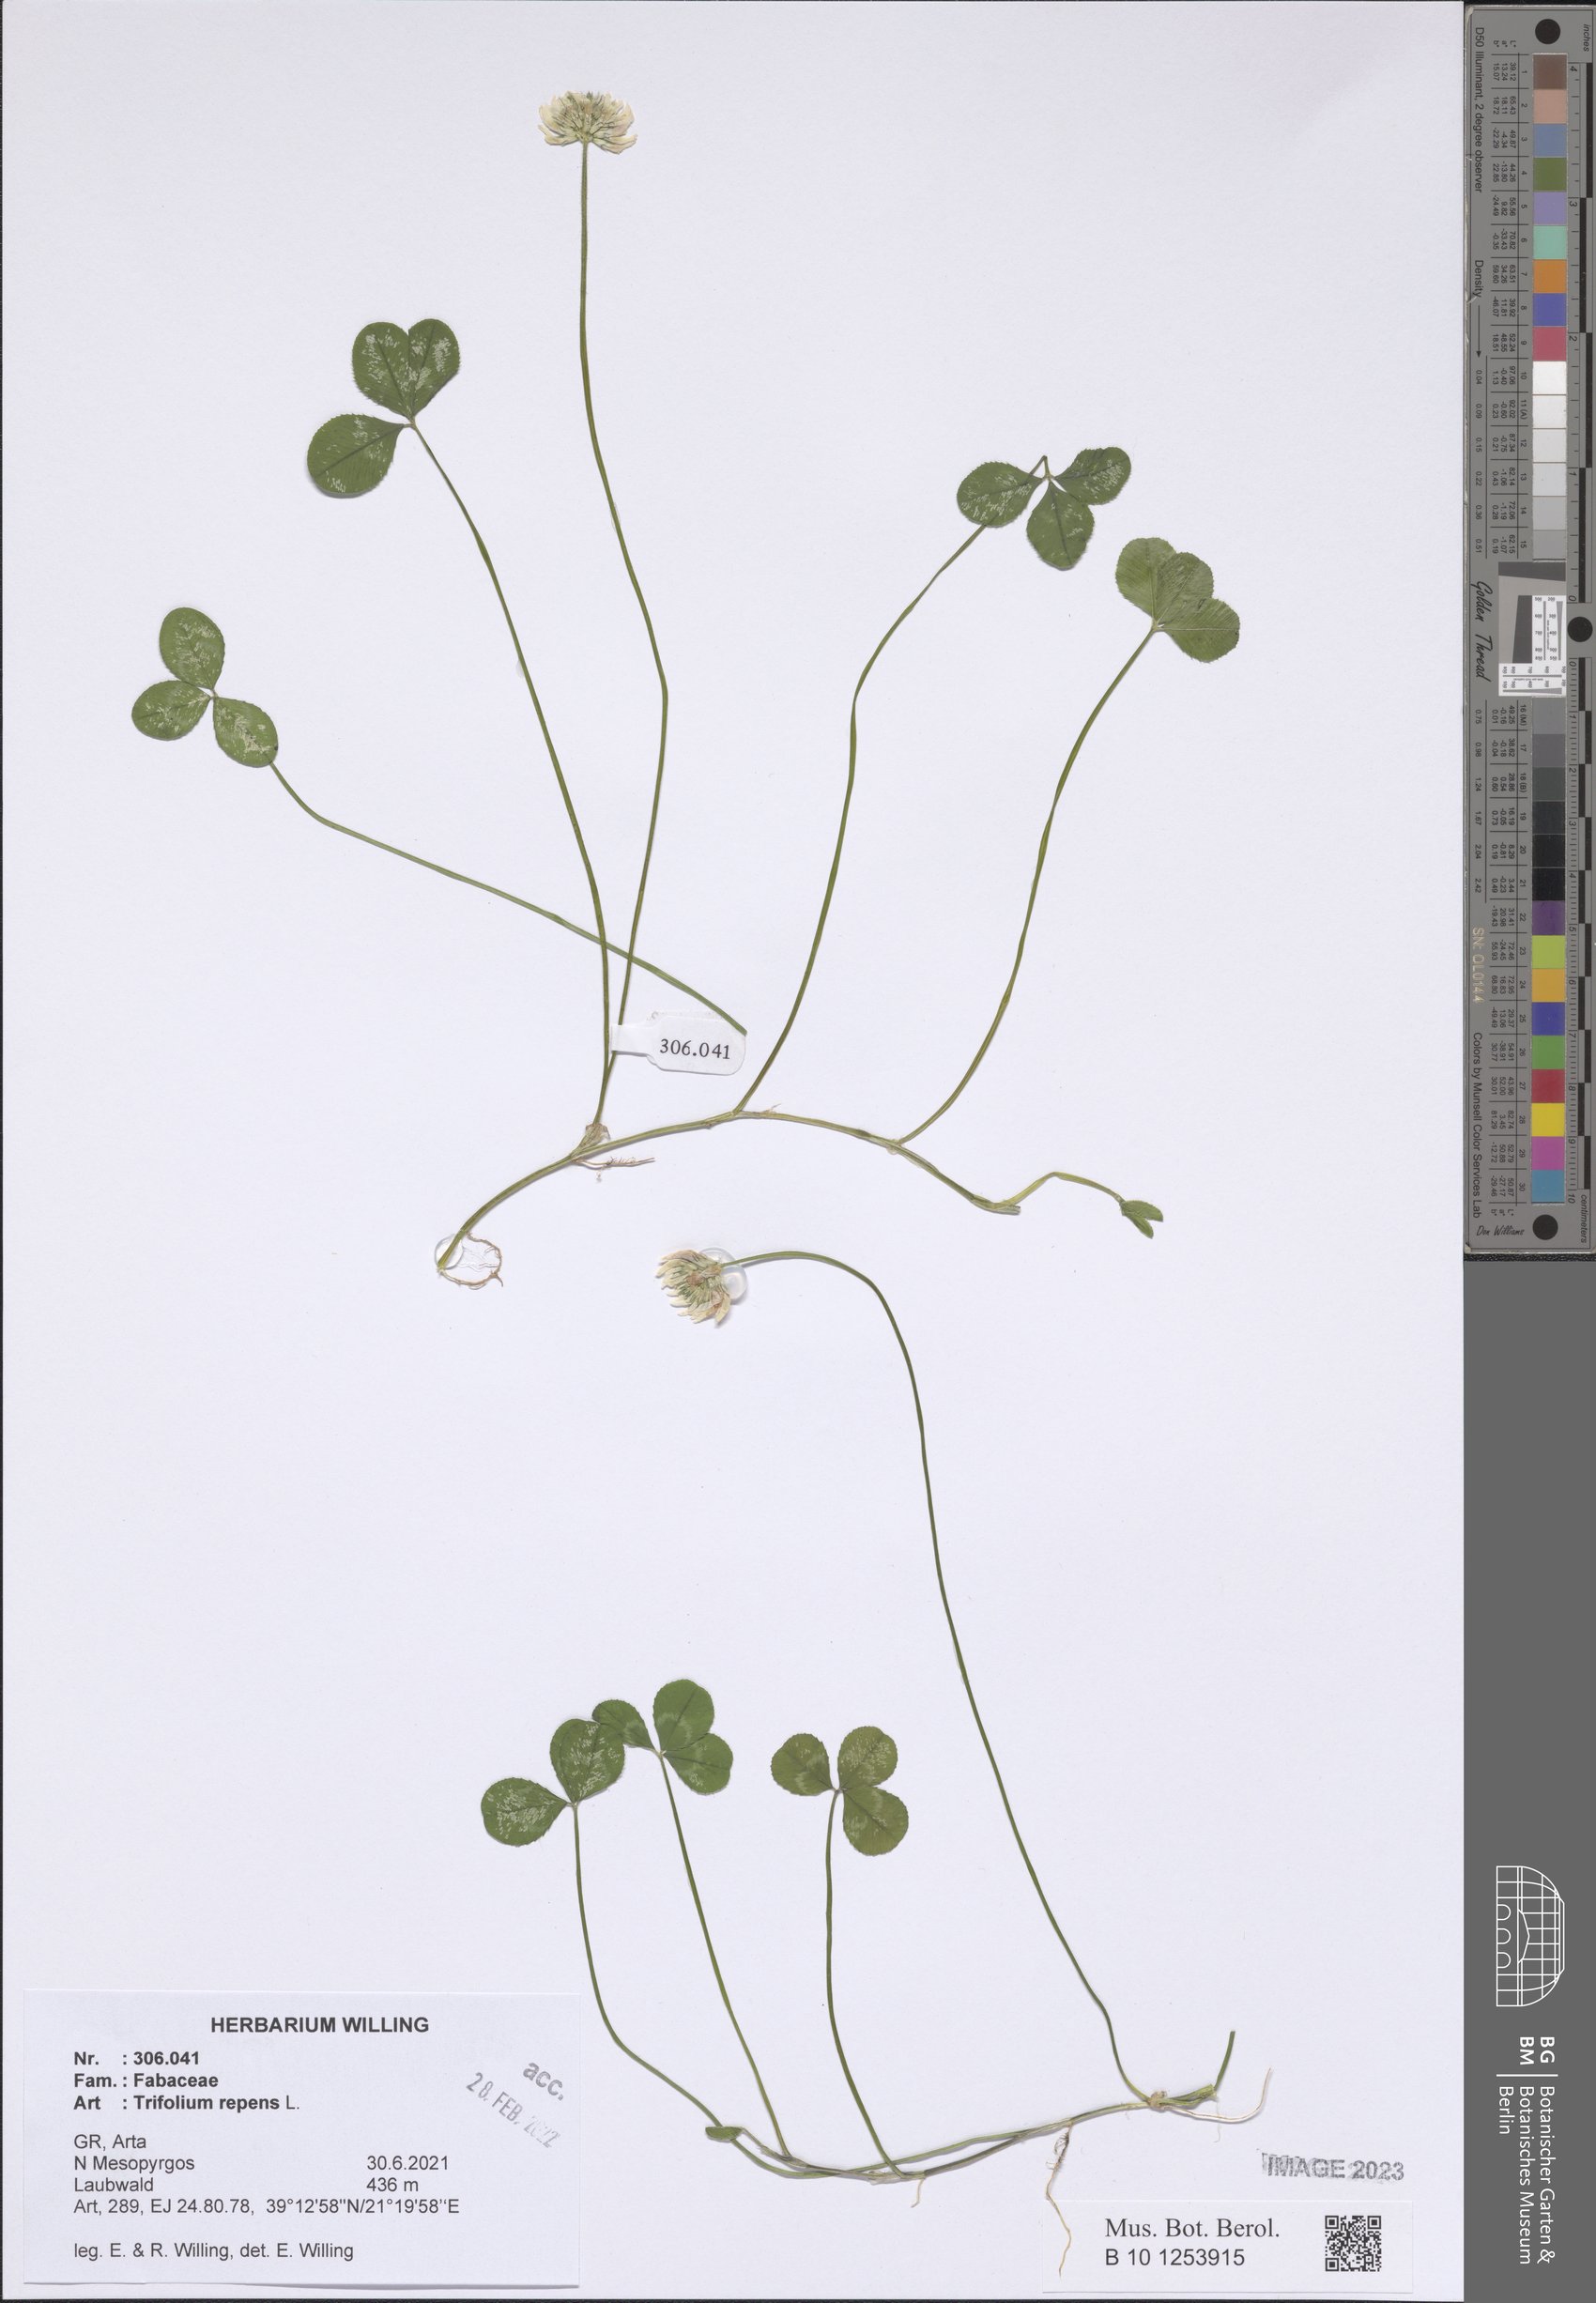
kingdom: Plantae
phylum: Tracheophyta
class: Magnoliopsida
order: Fabales
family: Fabaceae
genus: Trifolium
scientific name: Trifolium repens
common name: White clover
